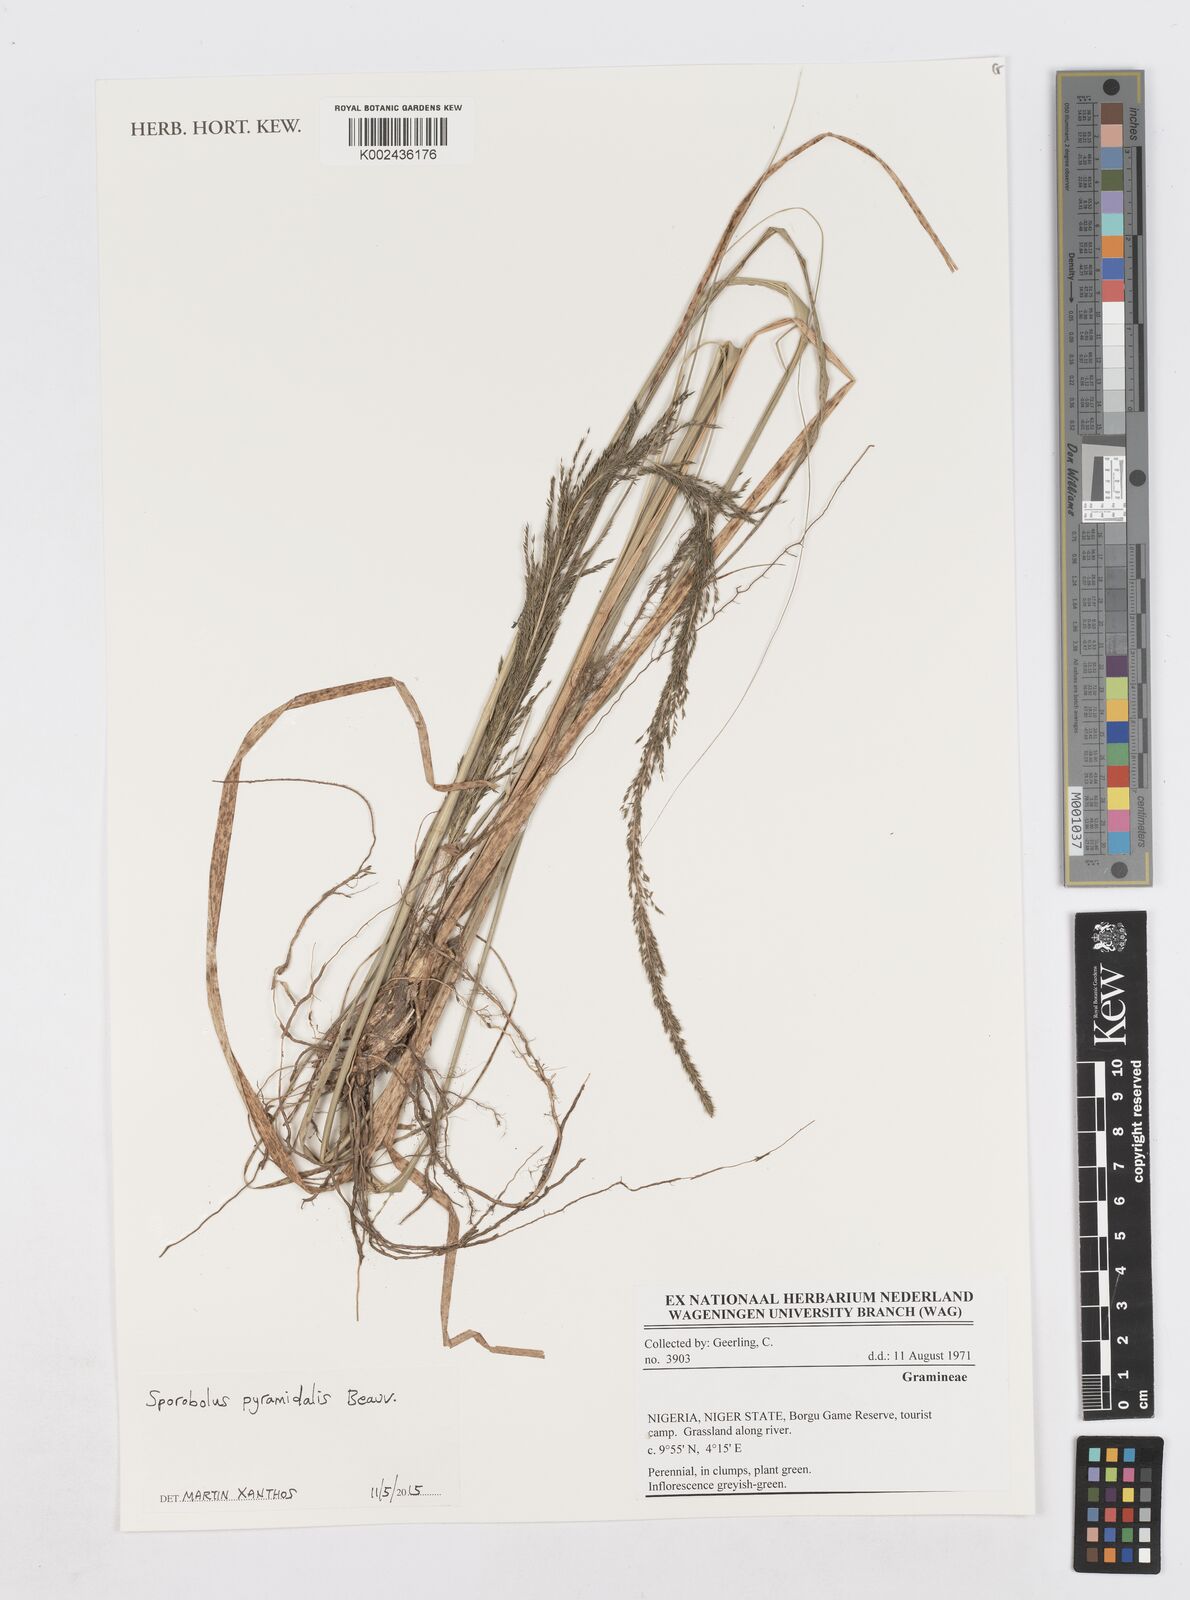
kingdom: Plantae
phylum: Tracheophyta
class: Liliopsida
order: Poales
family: Poaceae
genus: Sporobolus
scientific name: Sporobolus pyramidalis
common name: West indian dropseed
